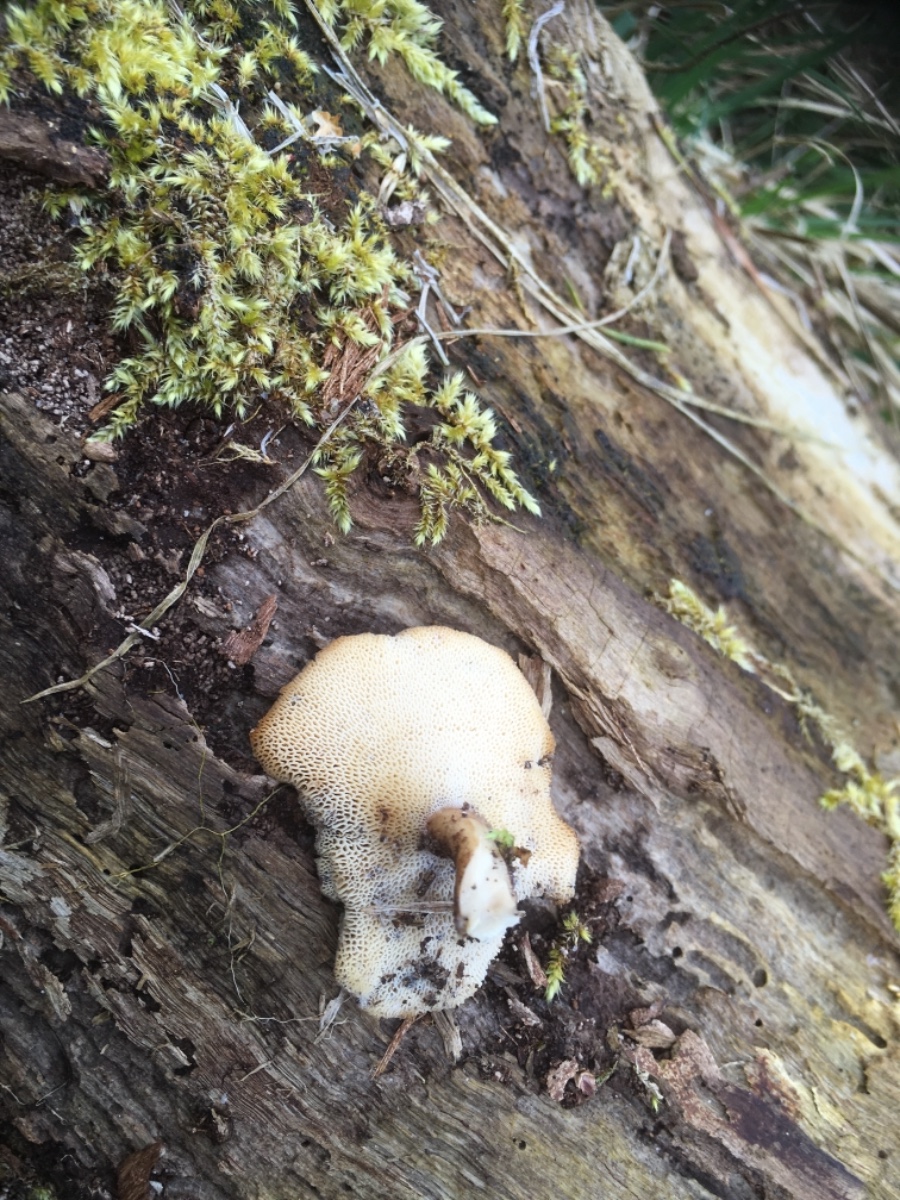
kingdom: Fungi
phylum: Basidiomycota
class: Agaricomycetes
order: Polyporales
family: Polyporaceae
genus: Lentinus
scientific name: Lentinus brumalis
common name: vinter-stilkporesvamp
